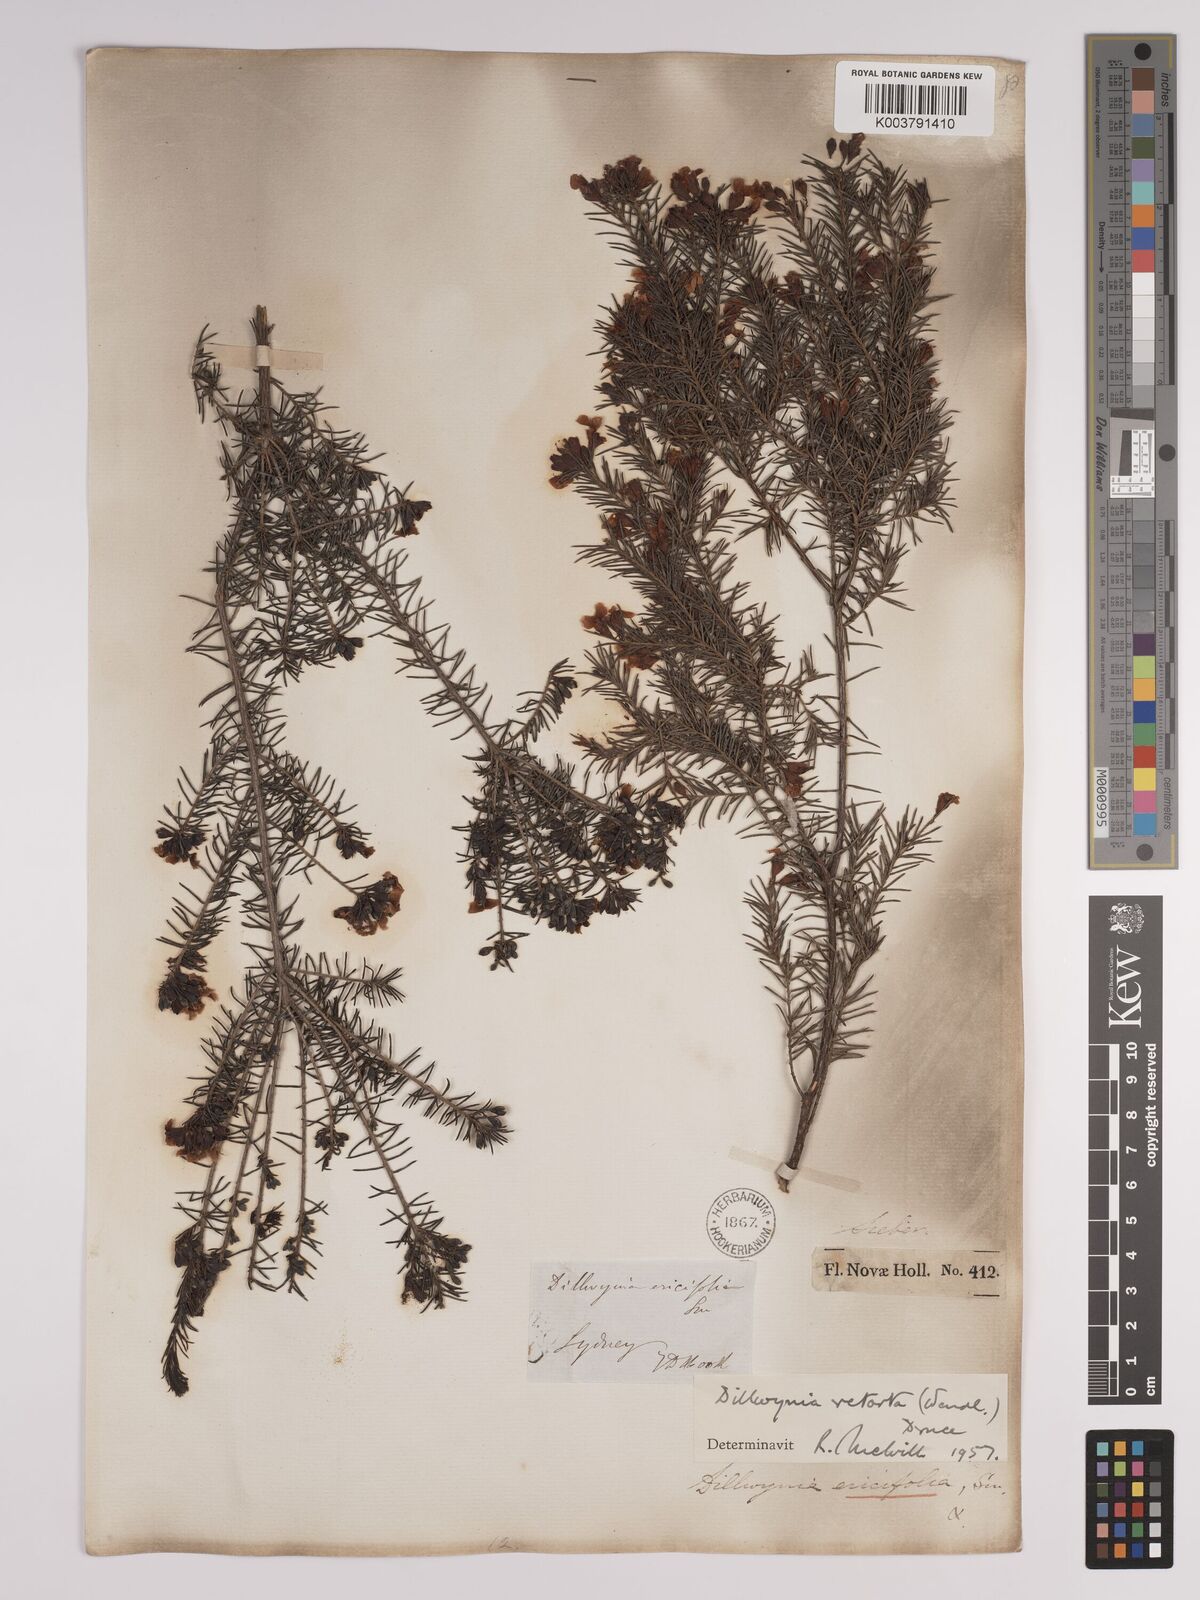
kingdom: Plantae
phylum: Tracheophyta
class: Magnoliopsida
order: Fabales
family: Fabaceae
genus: Dillwynia
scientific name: Dillwynia retorta
